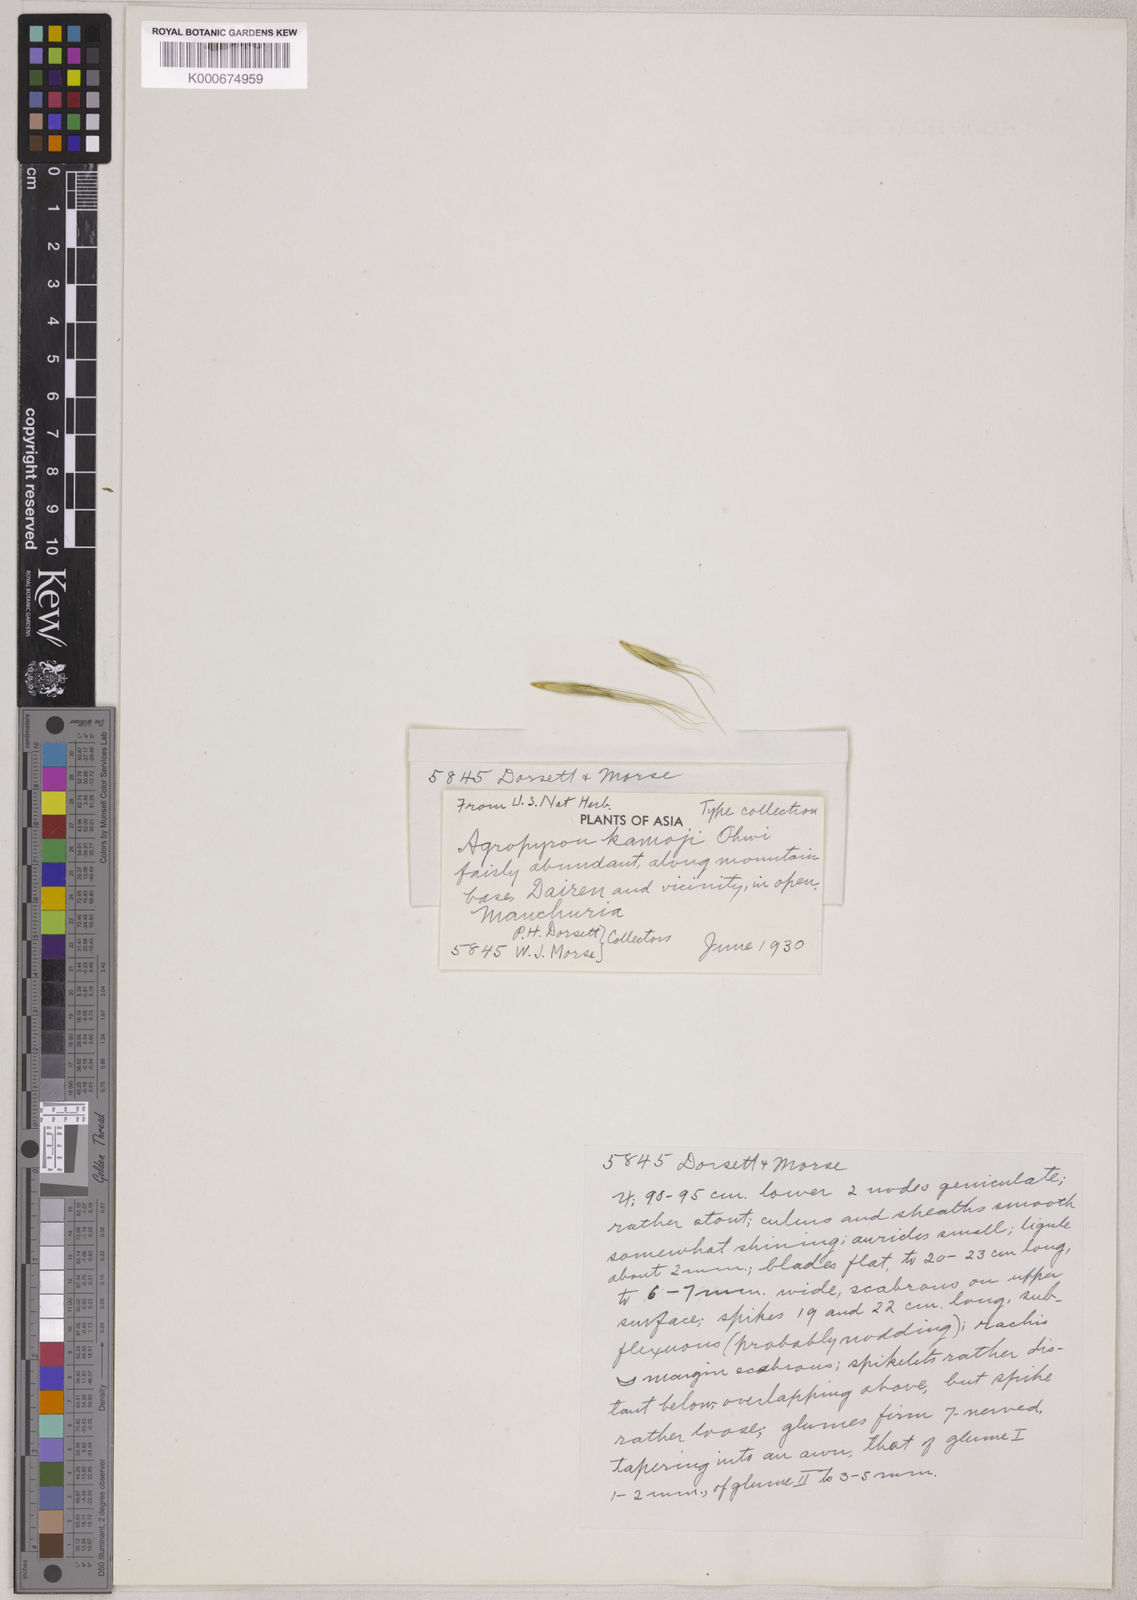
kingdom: Plantae
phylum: Tracheophyta
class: Liliopsida
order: Poales
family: Poaceae
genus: Elymus
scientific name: Elymus tsukushiensis
